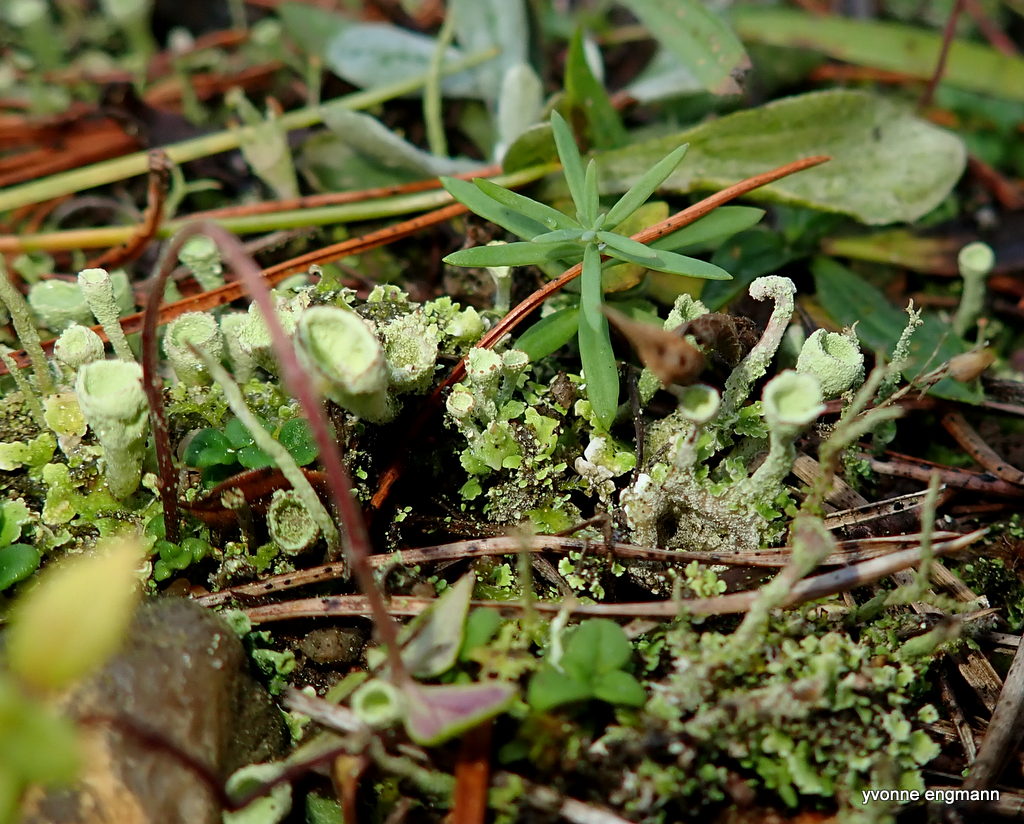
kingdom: Fungi
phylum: Ascomycota
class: Lecanoromycetes
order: Lecanorales
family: Cladoniaceae
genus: Cladonia
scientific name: Cladonia
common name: brungrøn bægerlav
